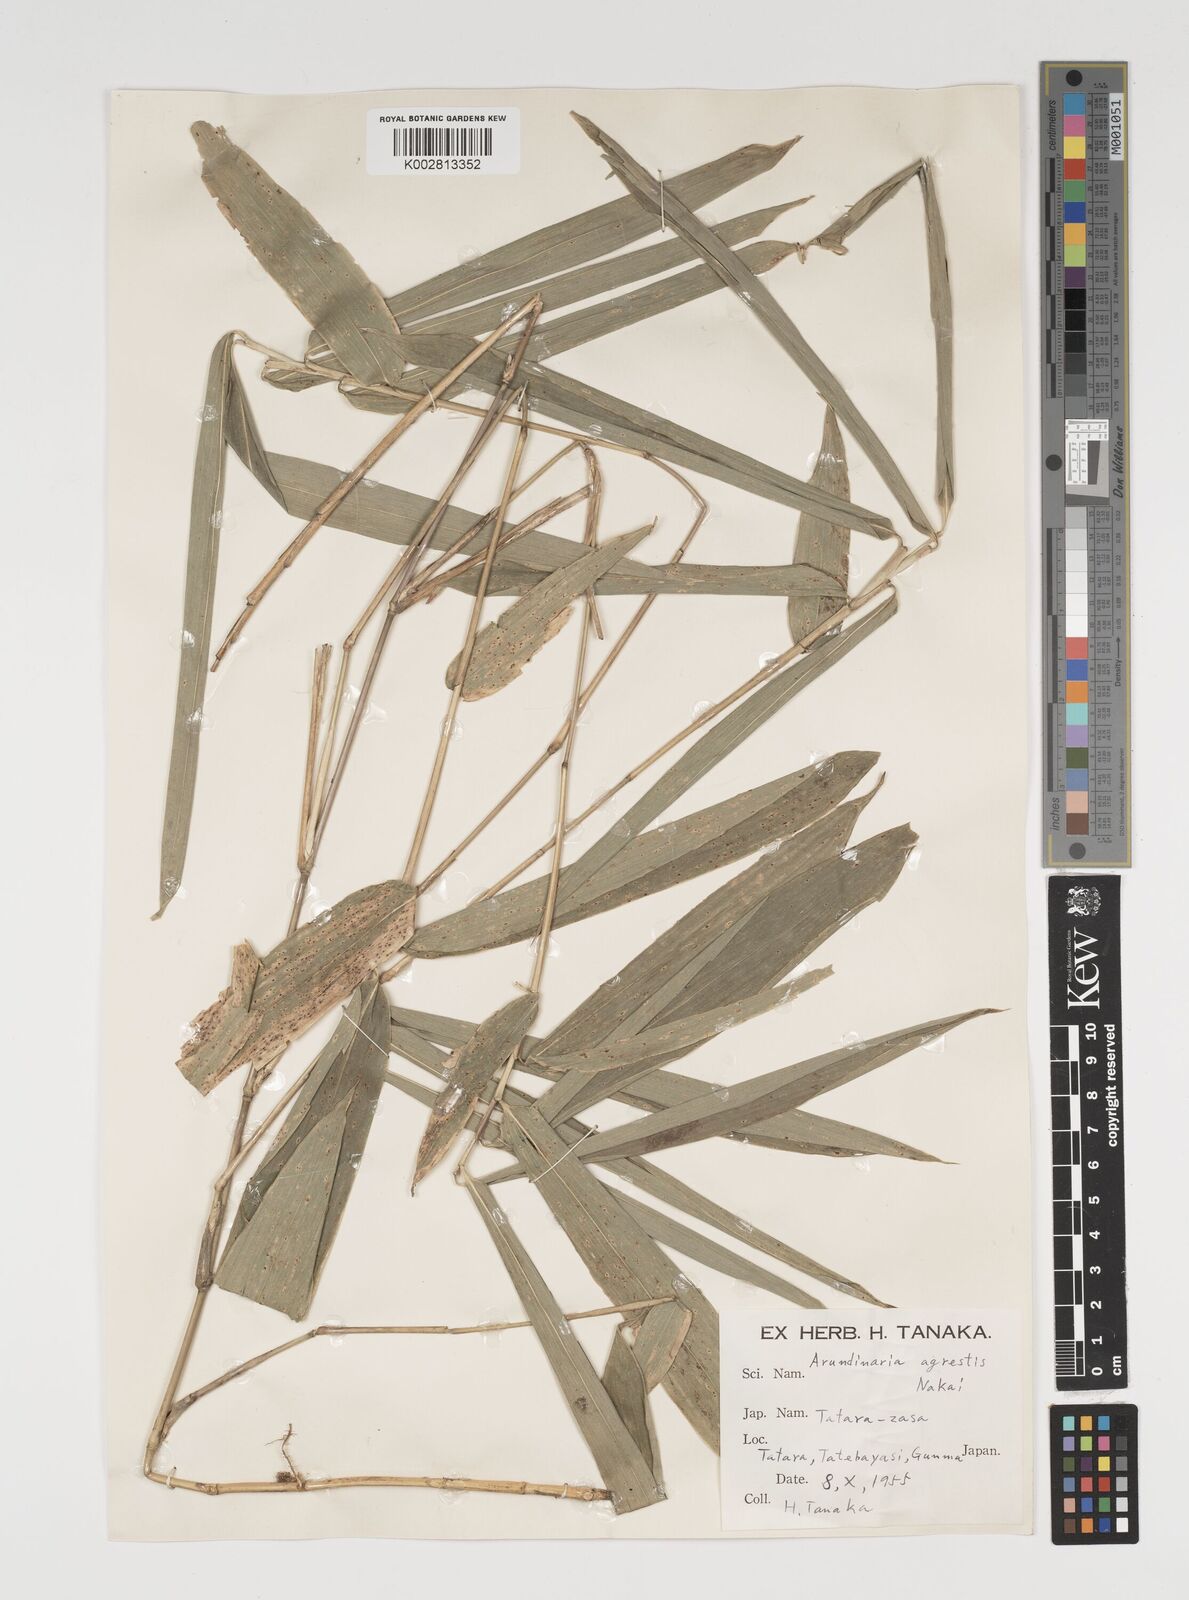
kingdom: Plantae
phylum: Tracheophyta
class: Liliopsida
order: Poales
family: Poaceae
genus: Sasaella
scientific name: Sasaella ramosa
